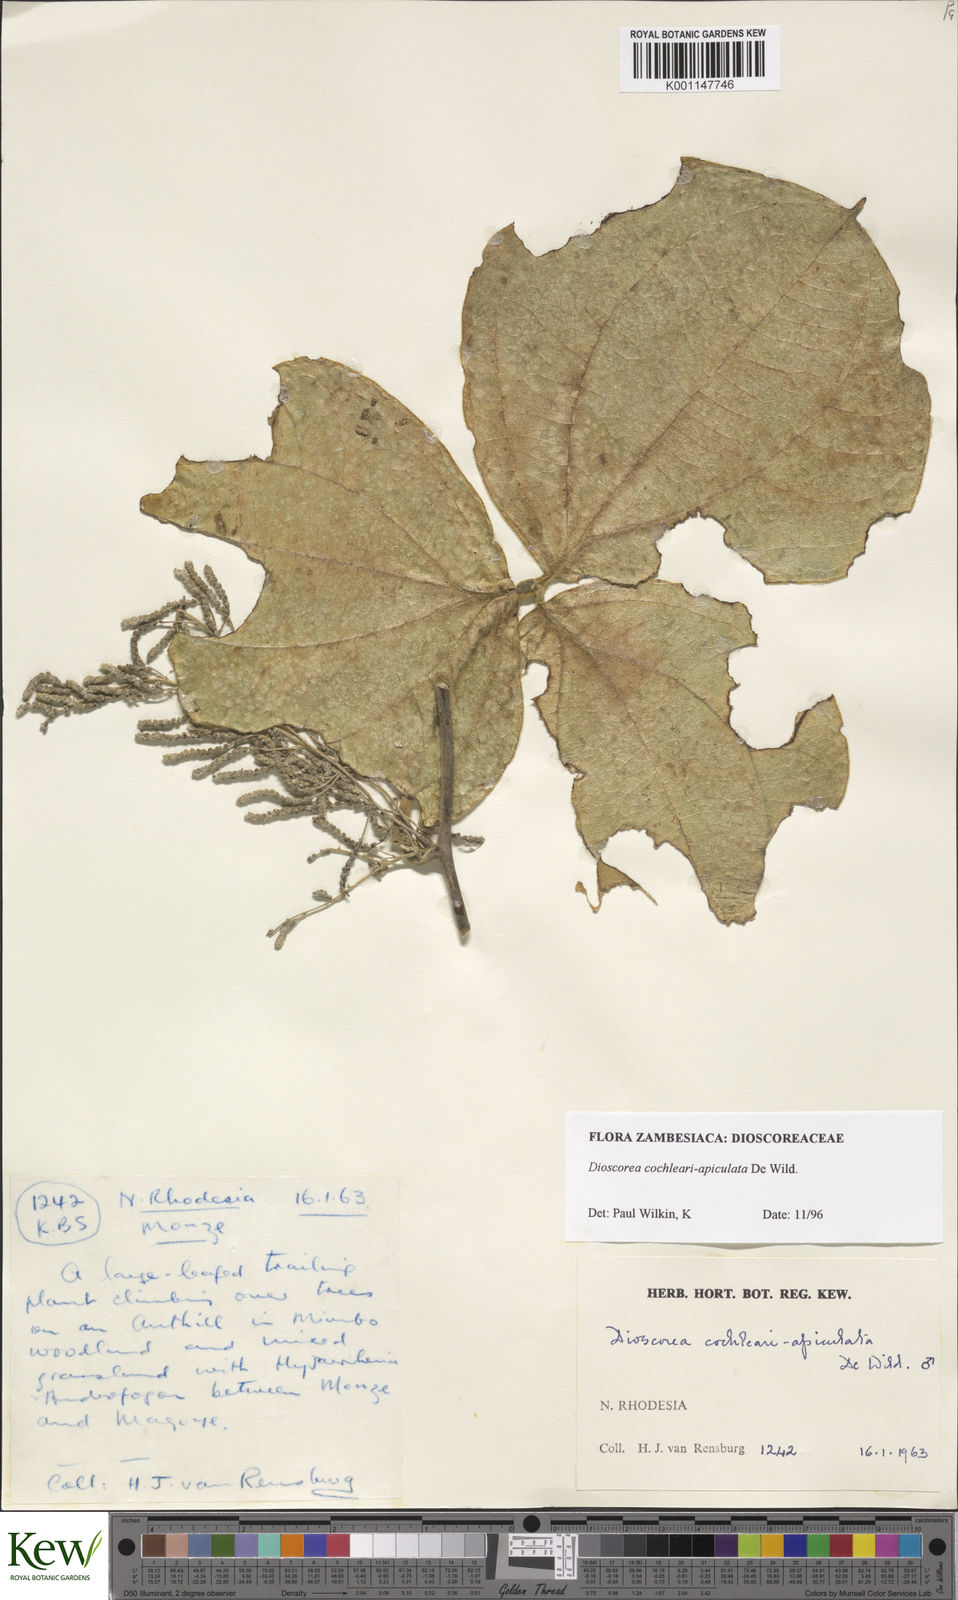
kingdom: Plantae
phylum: Tracheophyta
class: Liliopsida
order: Dioscoreales
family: Dioscoreaceae
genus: Dioscorea
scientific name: Dioscorea cochleariapiculata
